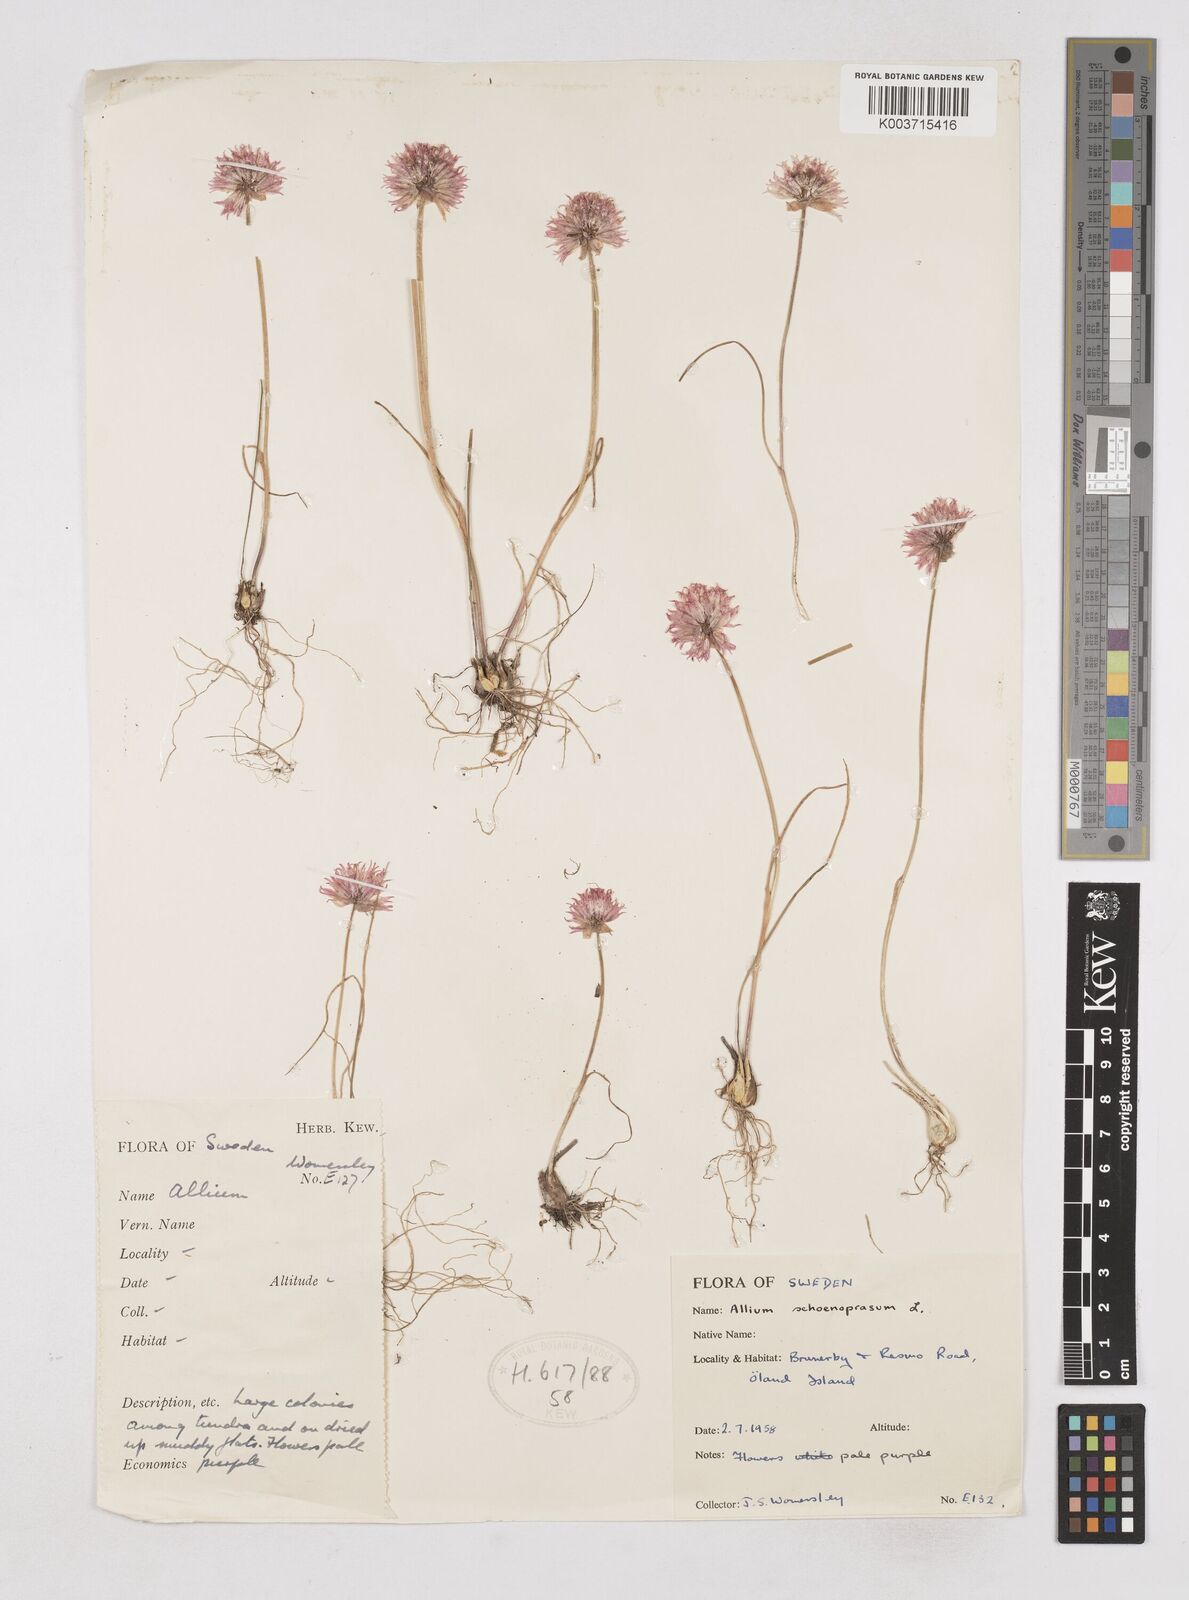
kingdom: Plantae
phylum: Tracheophyta
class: Liliopsida
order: Asparagales
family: Amaryllidaceae
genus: Allium
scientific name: Allium schoenoprasum
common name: Chives
